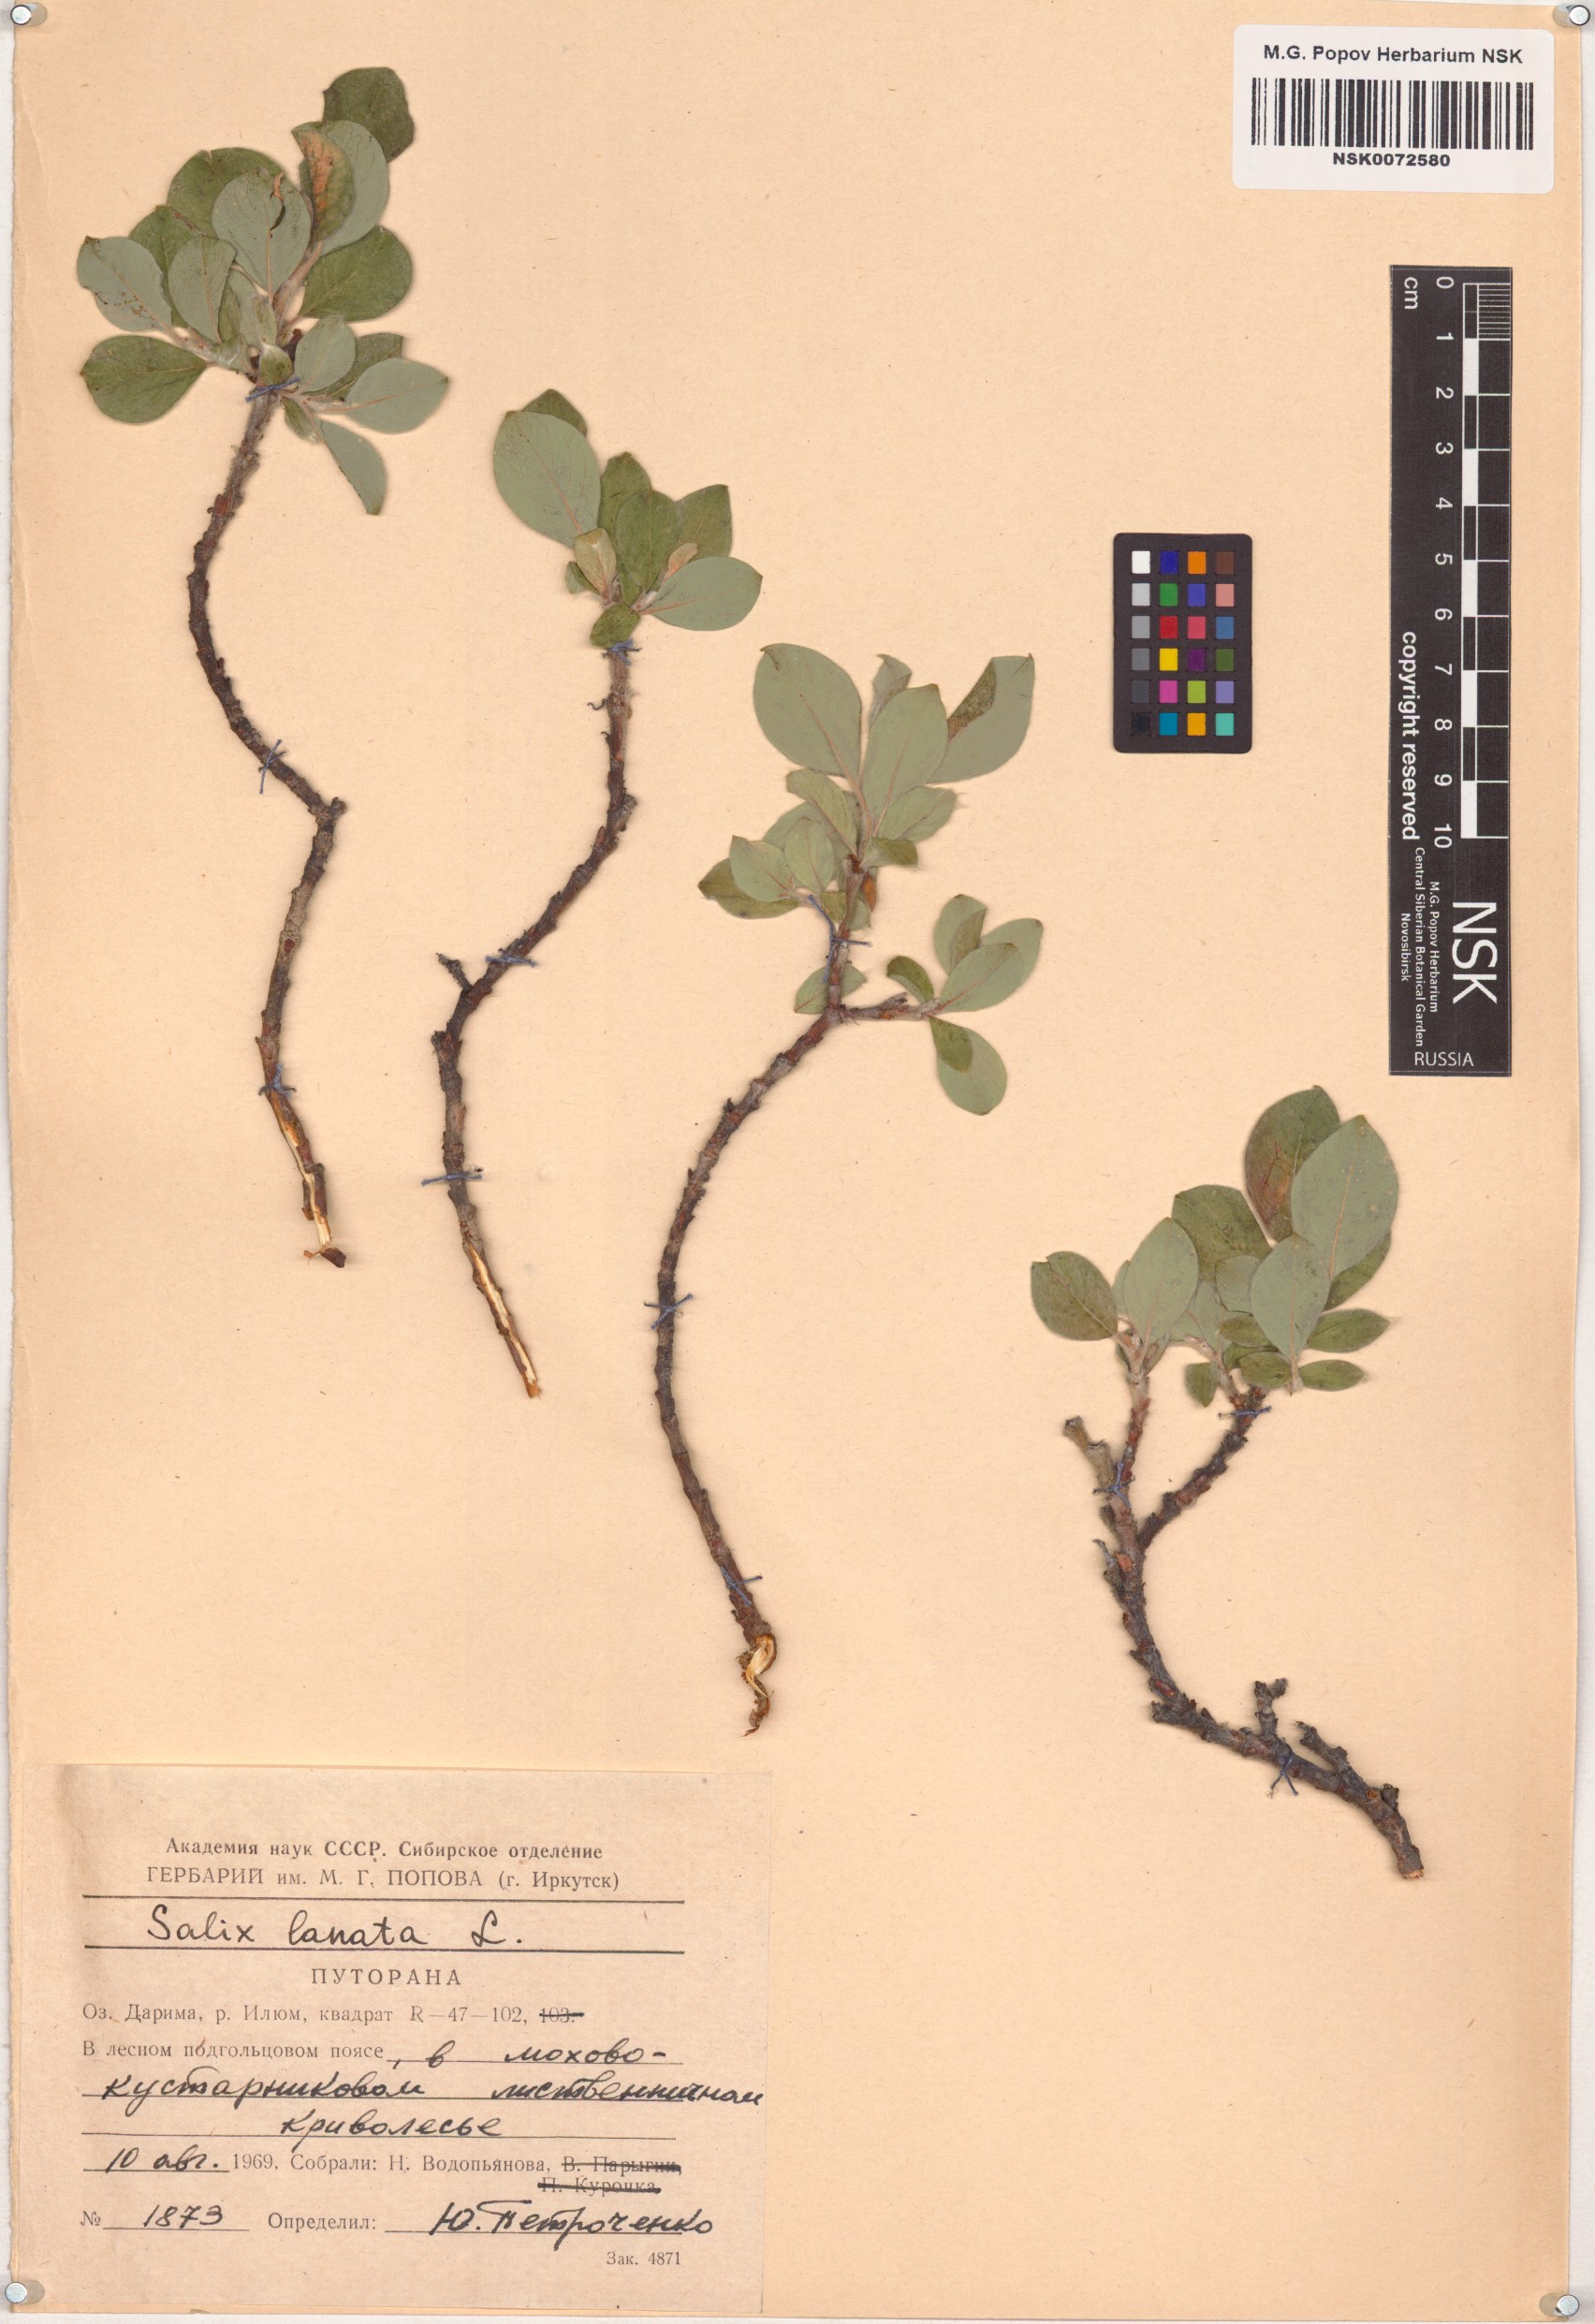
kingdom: Plantae
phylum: Tracheophyta
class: Magnoliopsida
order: Malpighiales
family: Salicaceae
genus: Salix
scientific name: Salix lanata
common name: Woolly willow
